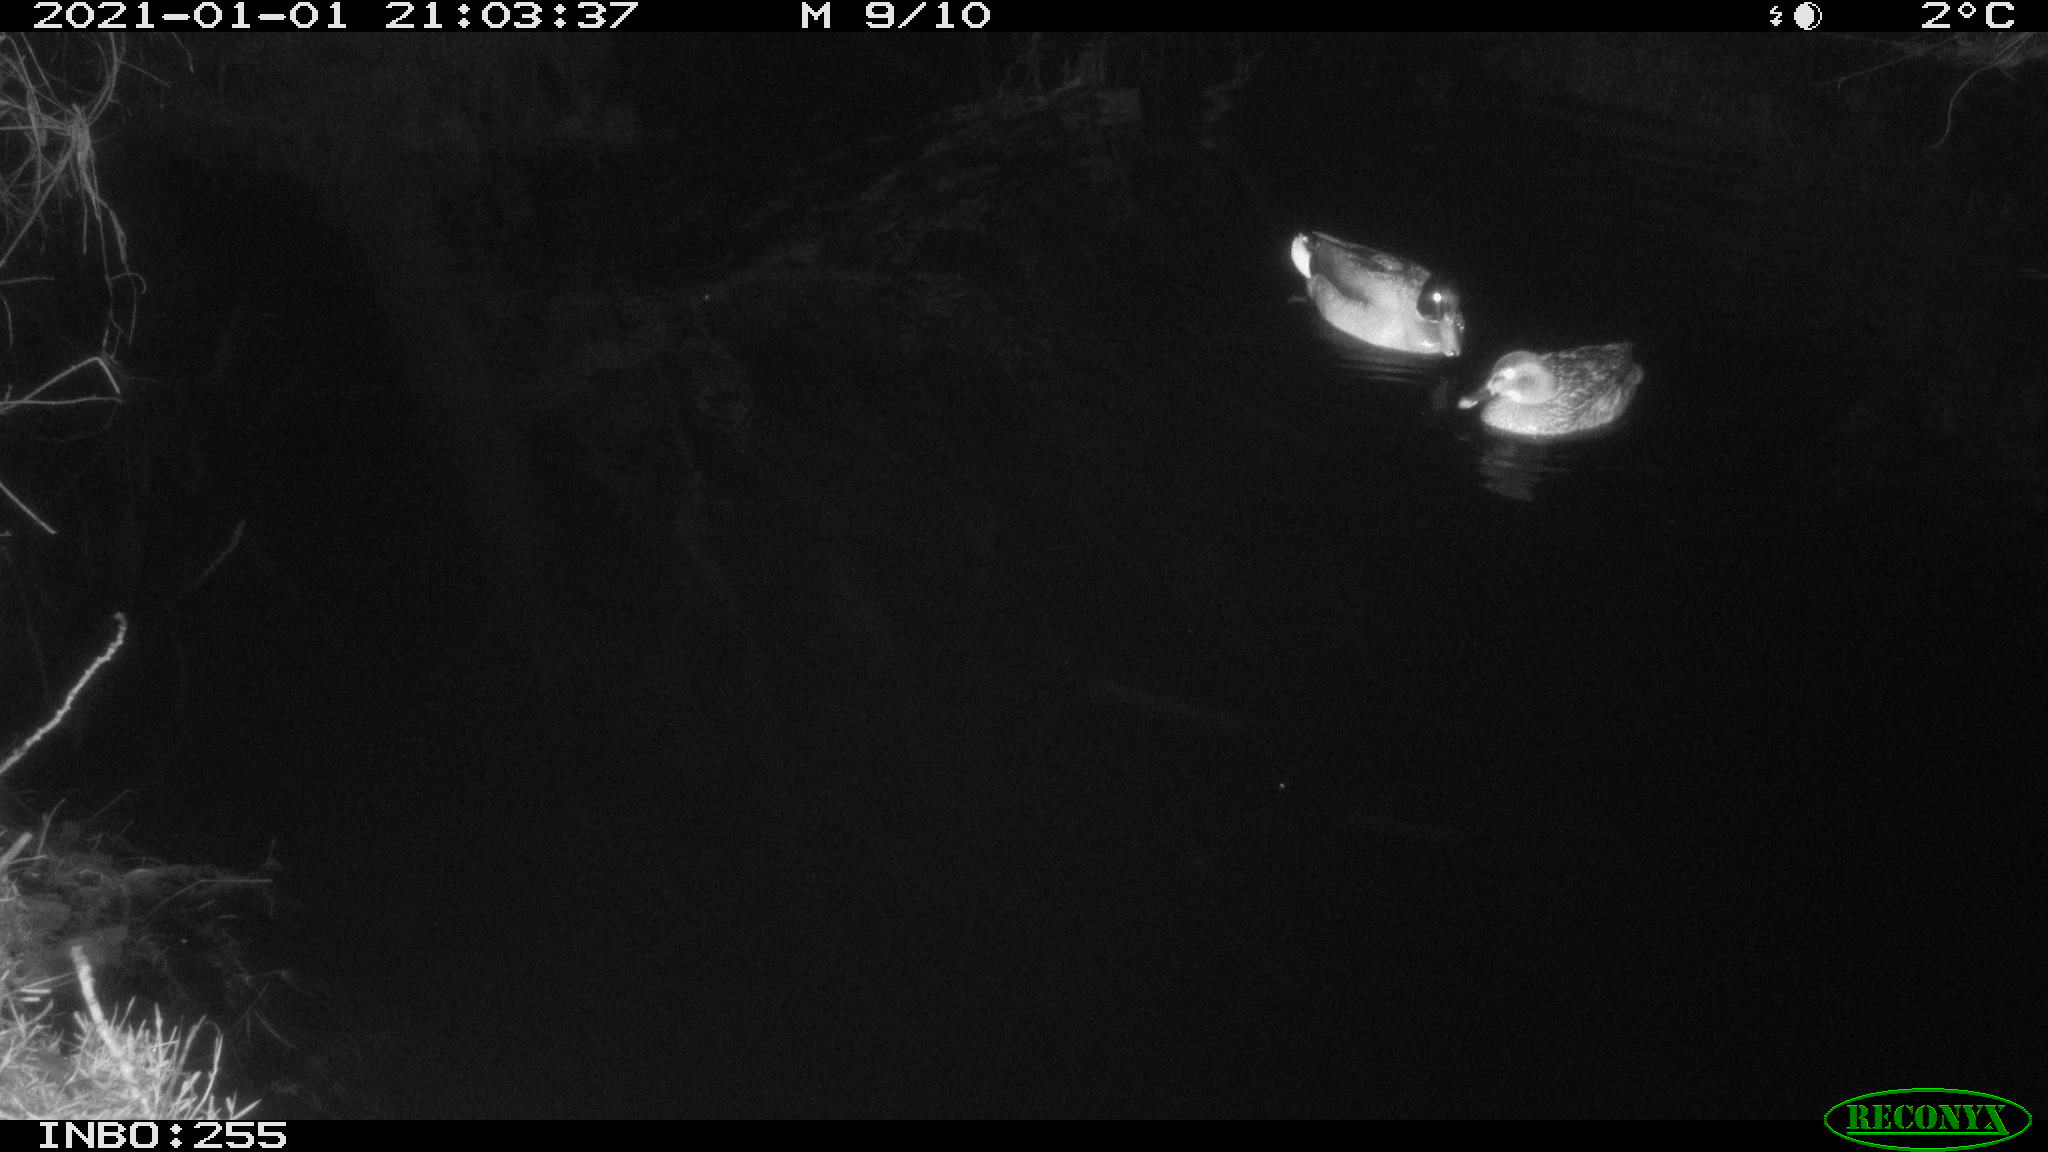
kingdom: Animalia
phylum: Chordata
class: Aves
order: Anseriformes
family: Anatidae
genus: Anas
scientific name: Anas platyrhynchos
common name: Mallard
